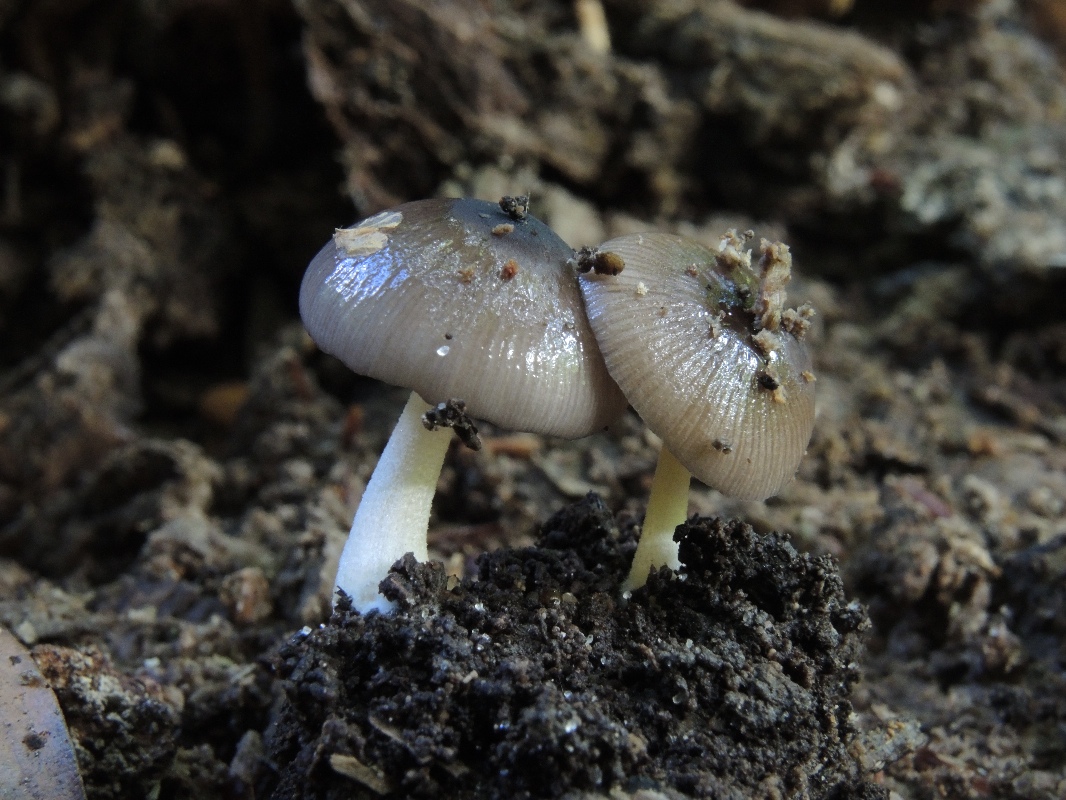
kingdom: Fungi
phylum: Basidiomycota
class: Agaricomycetes
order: Agaricales
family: Bolbitiaceae
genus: Bolbitius
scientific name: Bolbitius reticulatus
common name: netåret gulhat
